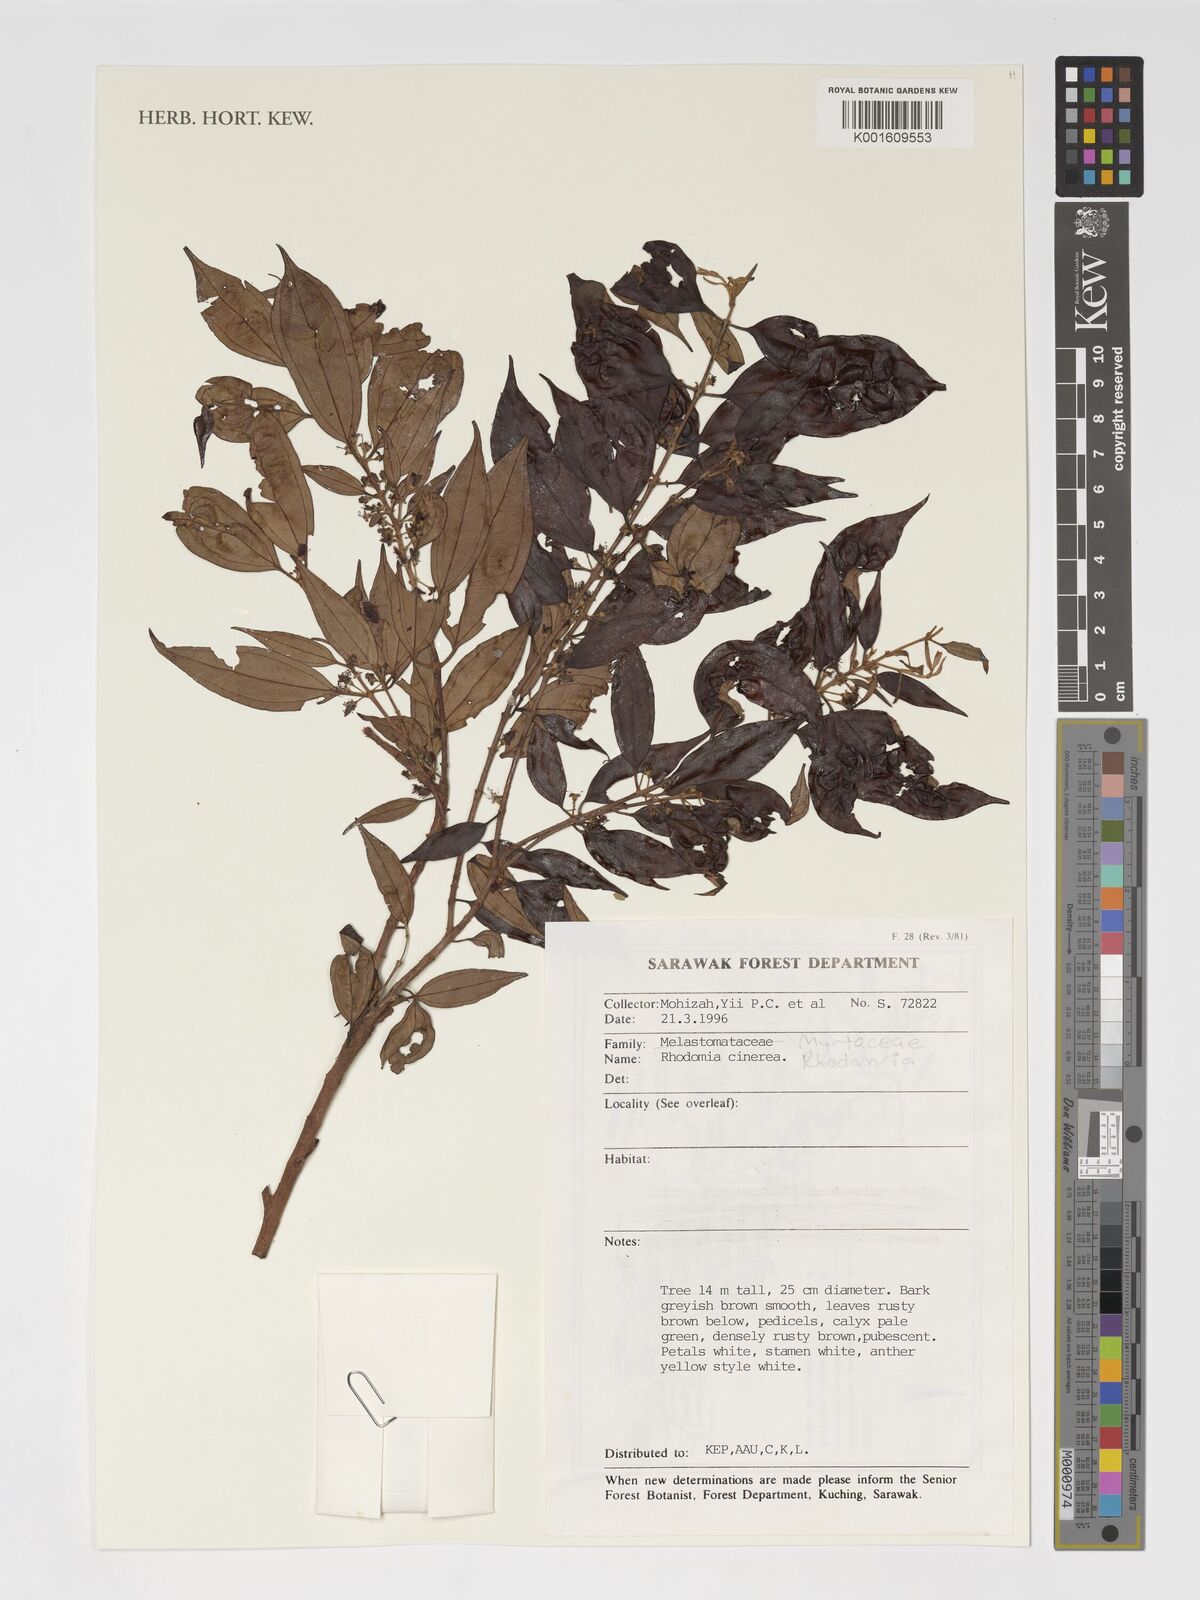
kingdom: Plantae
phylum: Tracheophyta
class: Magnoliopsida
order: Myrtales
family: Myrtaceae
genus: Rhodamnia
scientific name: Rhodamnia cinerea
